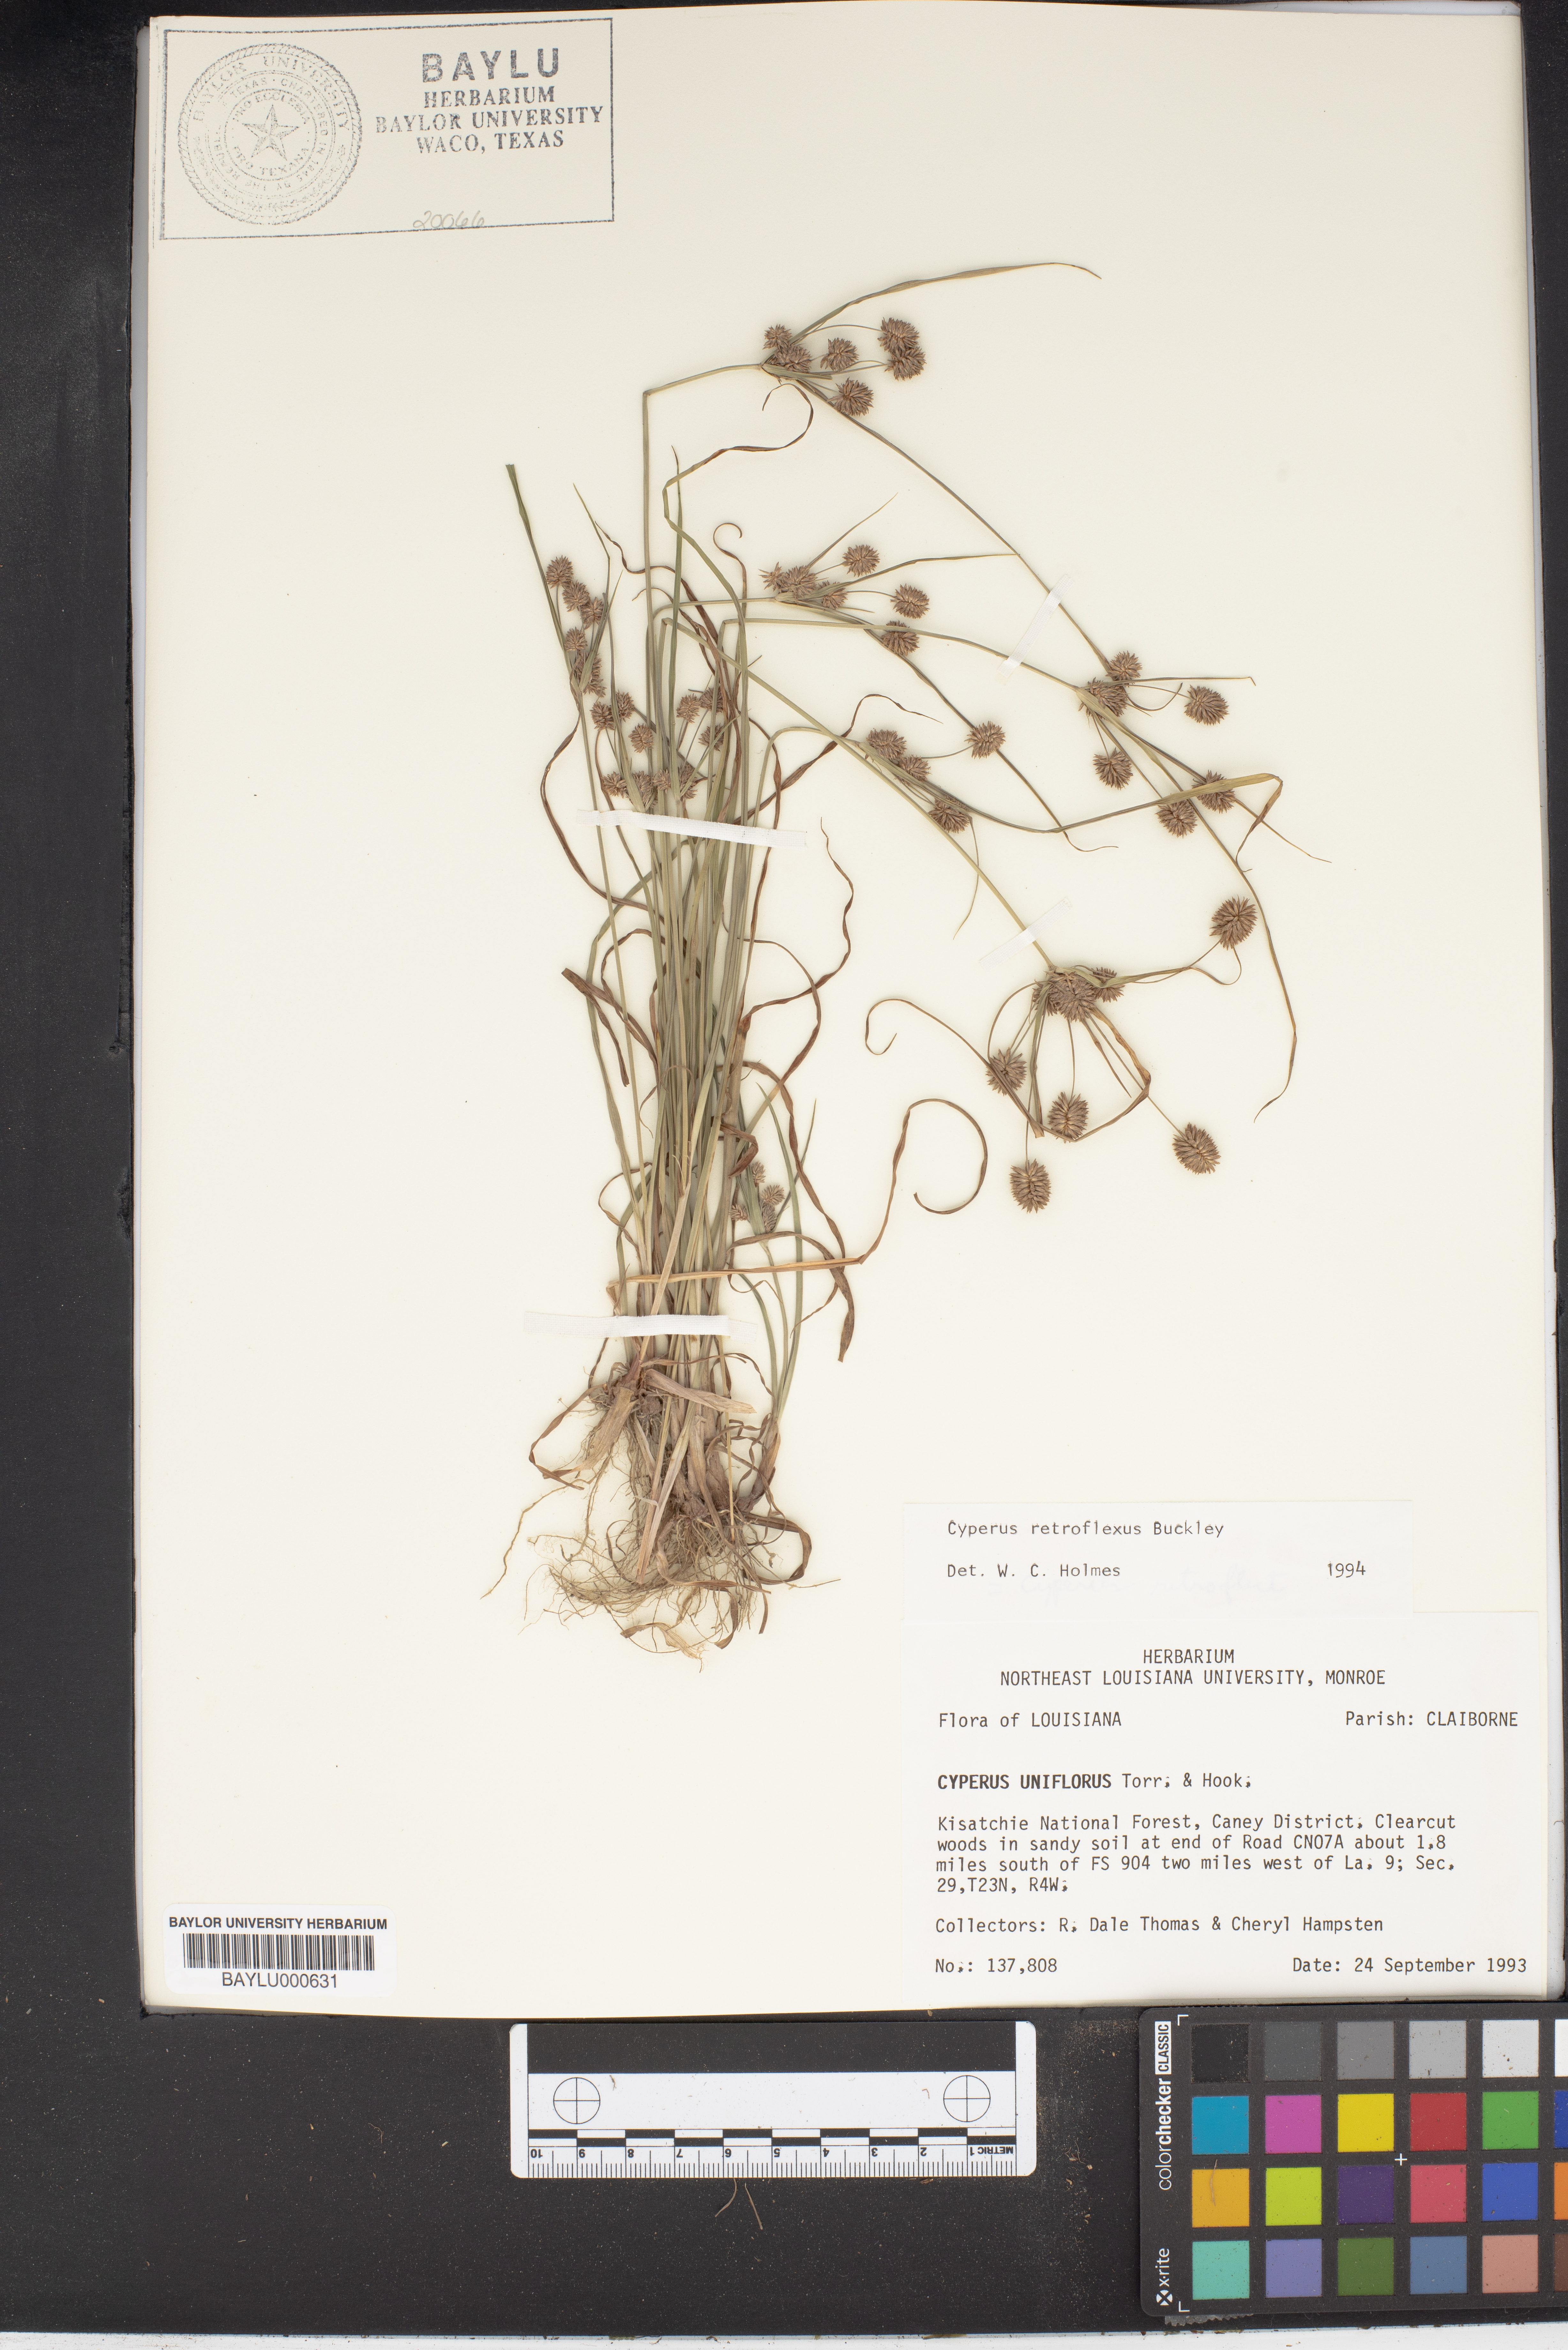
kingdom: Plantae
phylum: Tracheophyta
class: Liliopsida
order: Poales
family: Cyperaceae
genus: Cyperus
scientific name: Cyperus retroflexus
